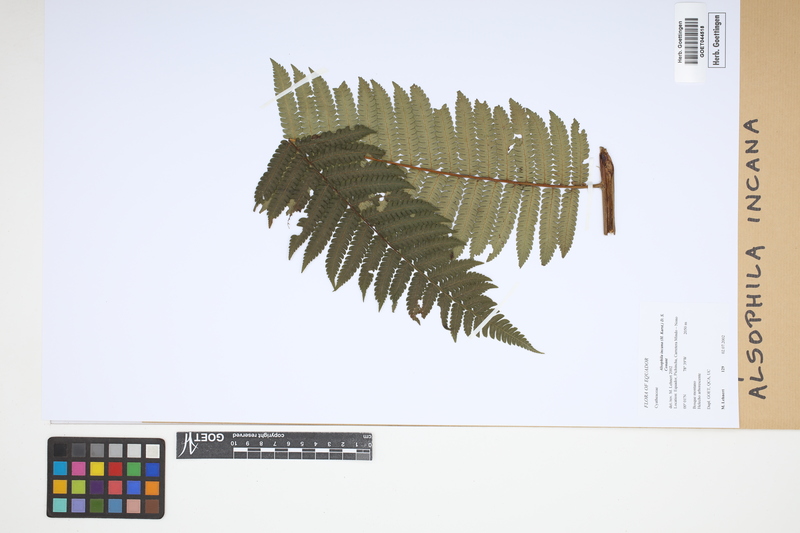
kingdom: Plantae
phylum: Tracheophyta
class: Polypodiopsida
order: Cyatheales
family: Cyatheaceae
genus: Alsophila
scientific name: Alsophila incana
